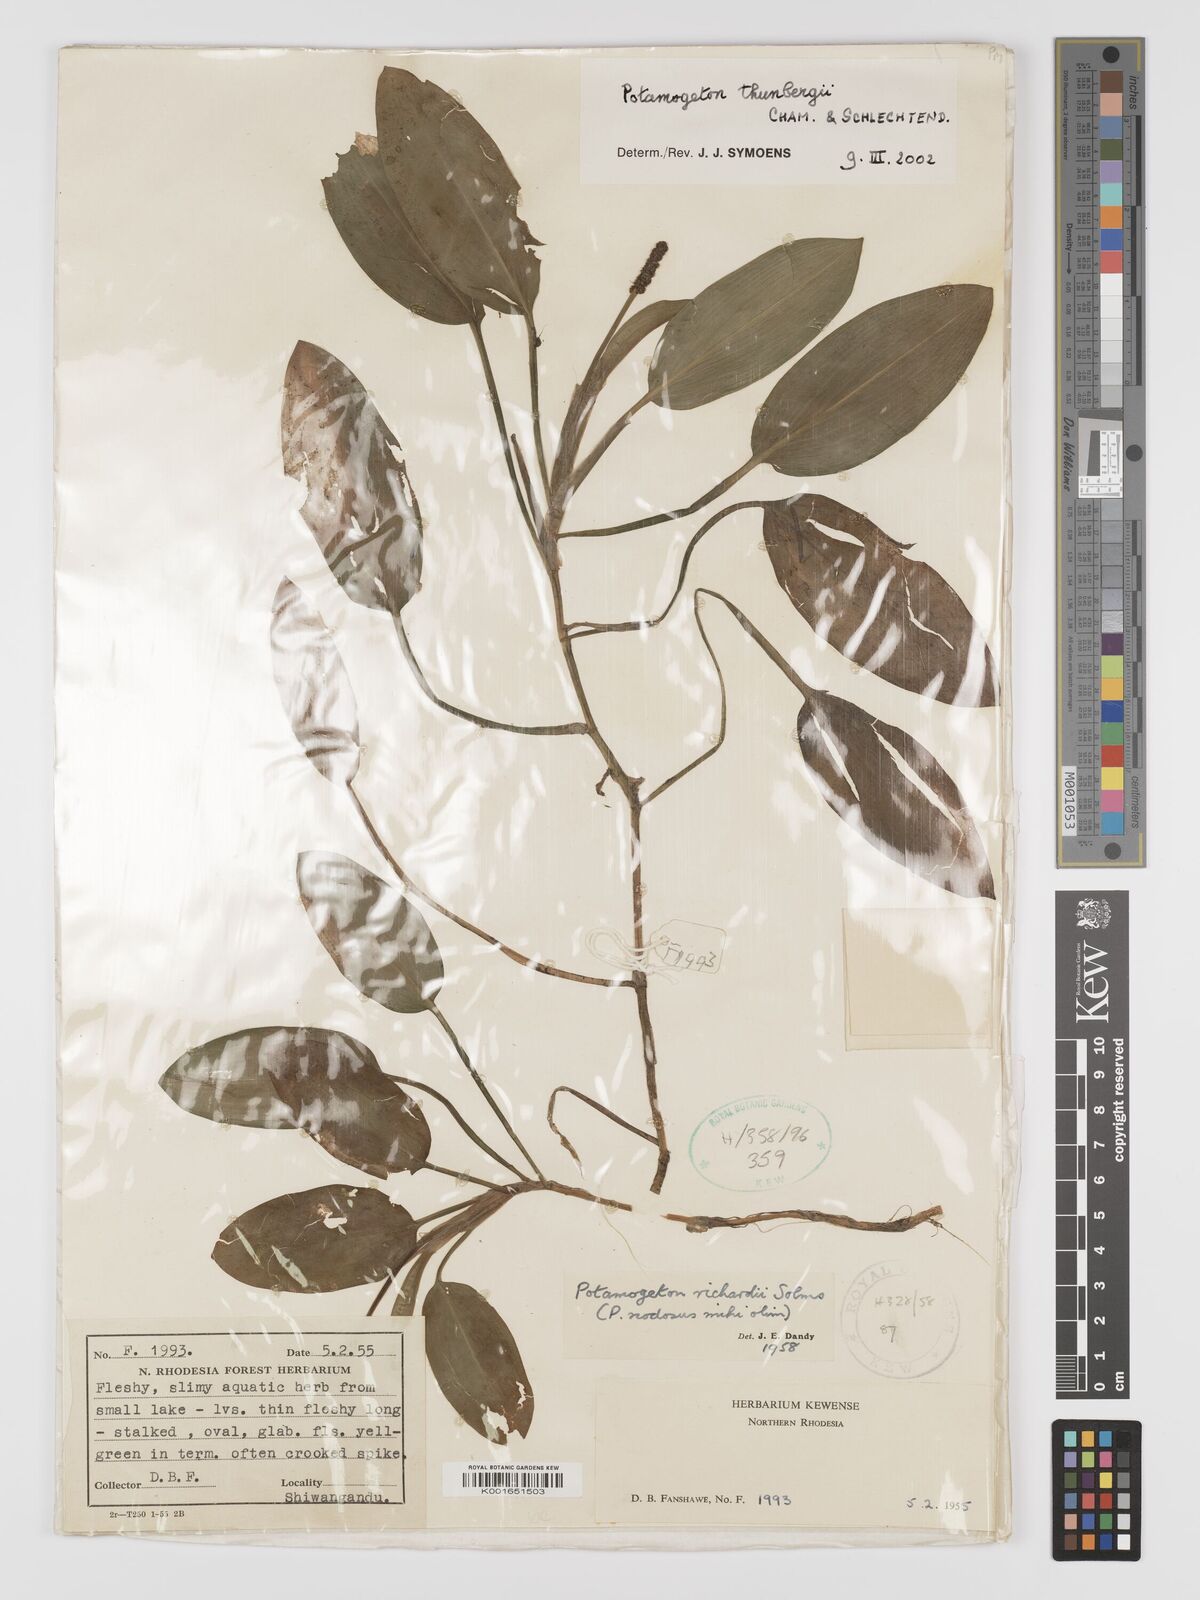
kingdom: Plantae
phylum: Tracheophyta
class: Liliopsida
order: Alismatales
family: Potamogetonaceae
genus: Potamogeton
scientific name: Potamogeton nodosus
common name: Loddon pondweed
